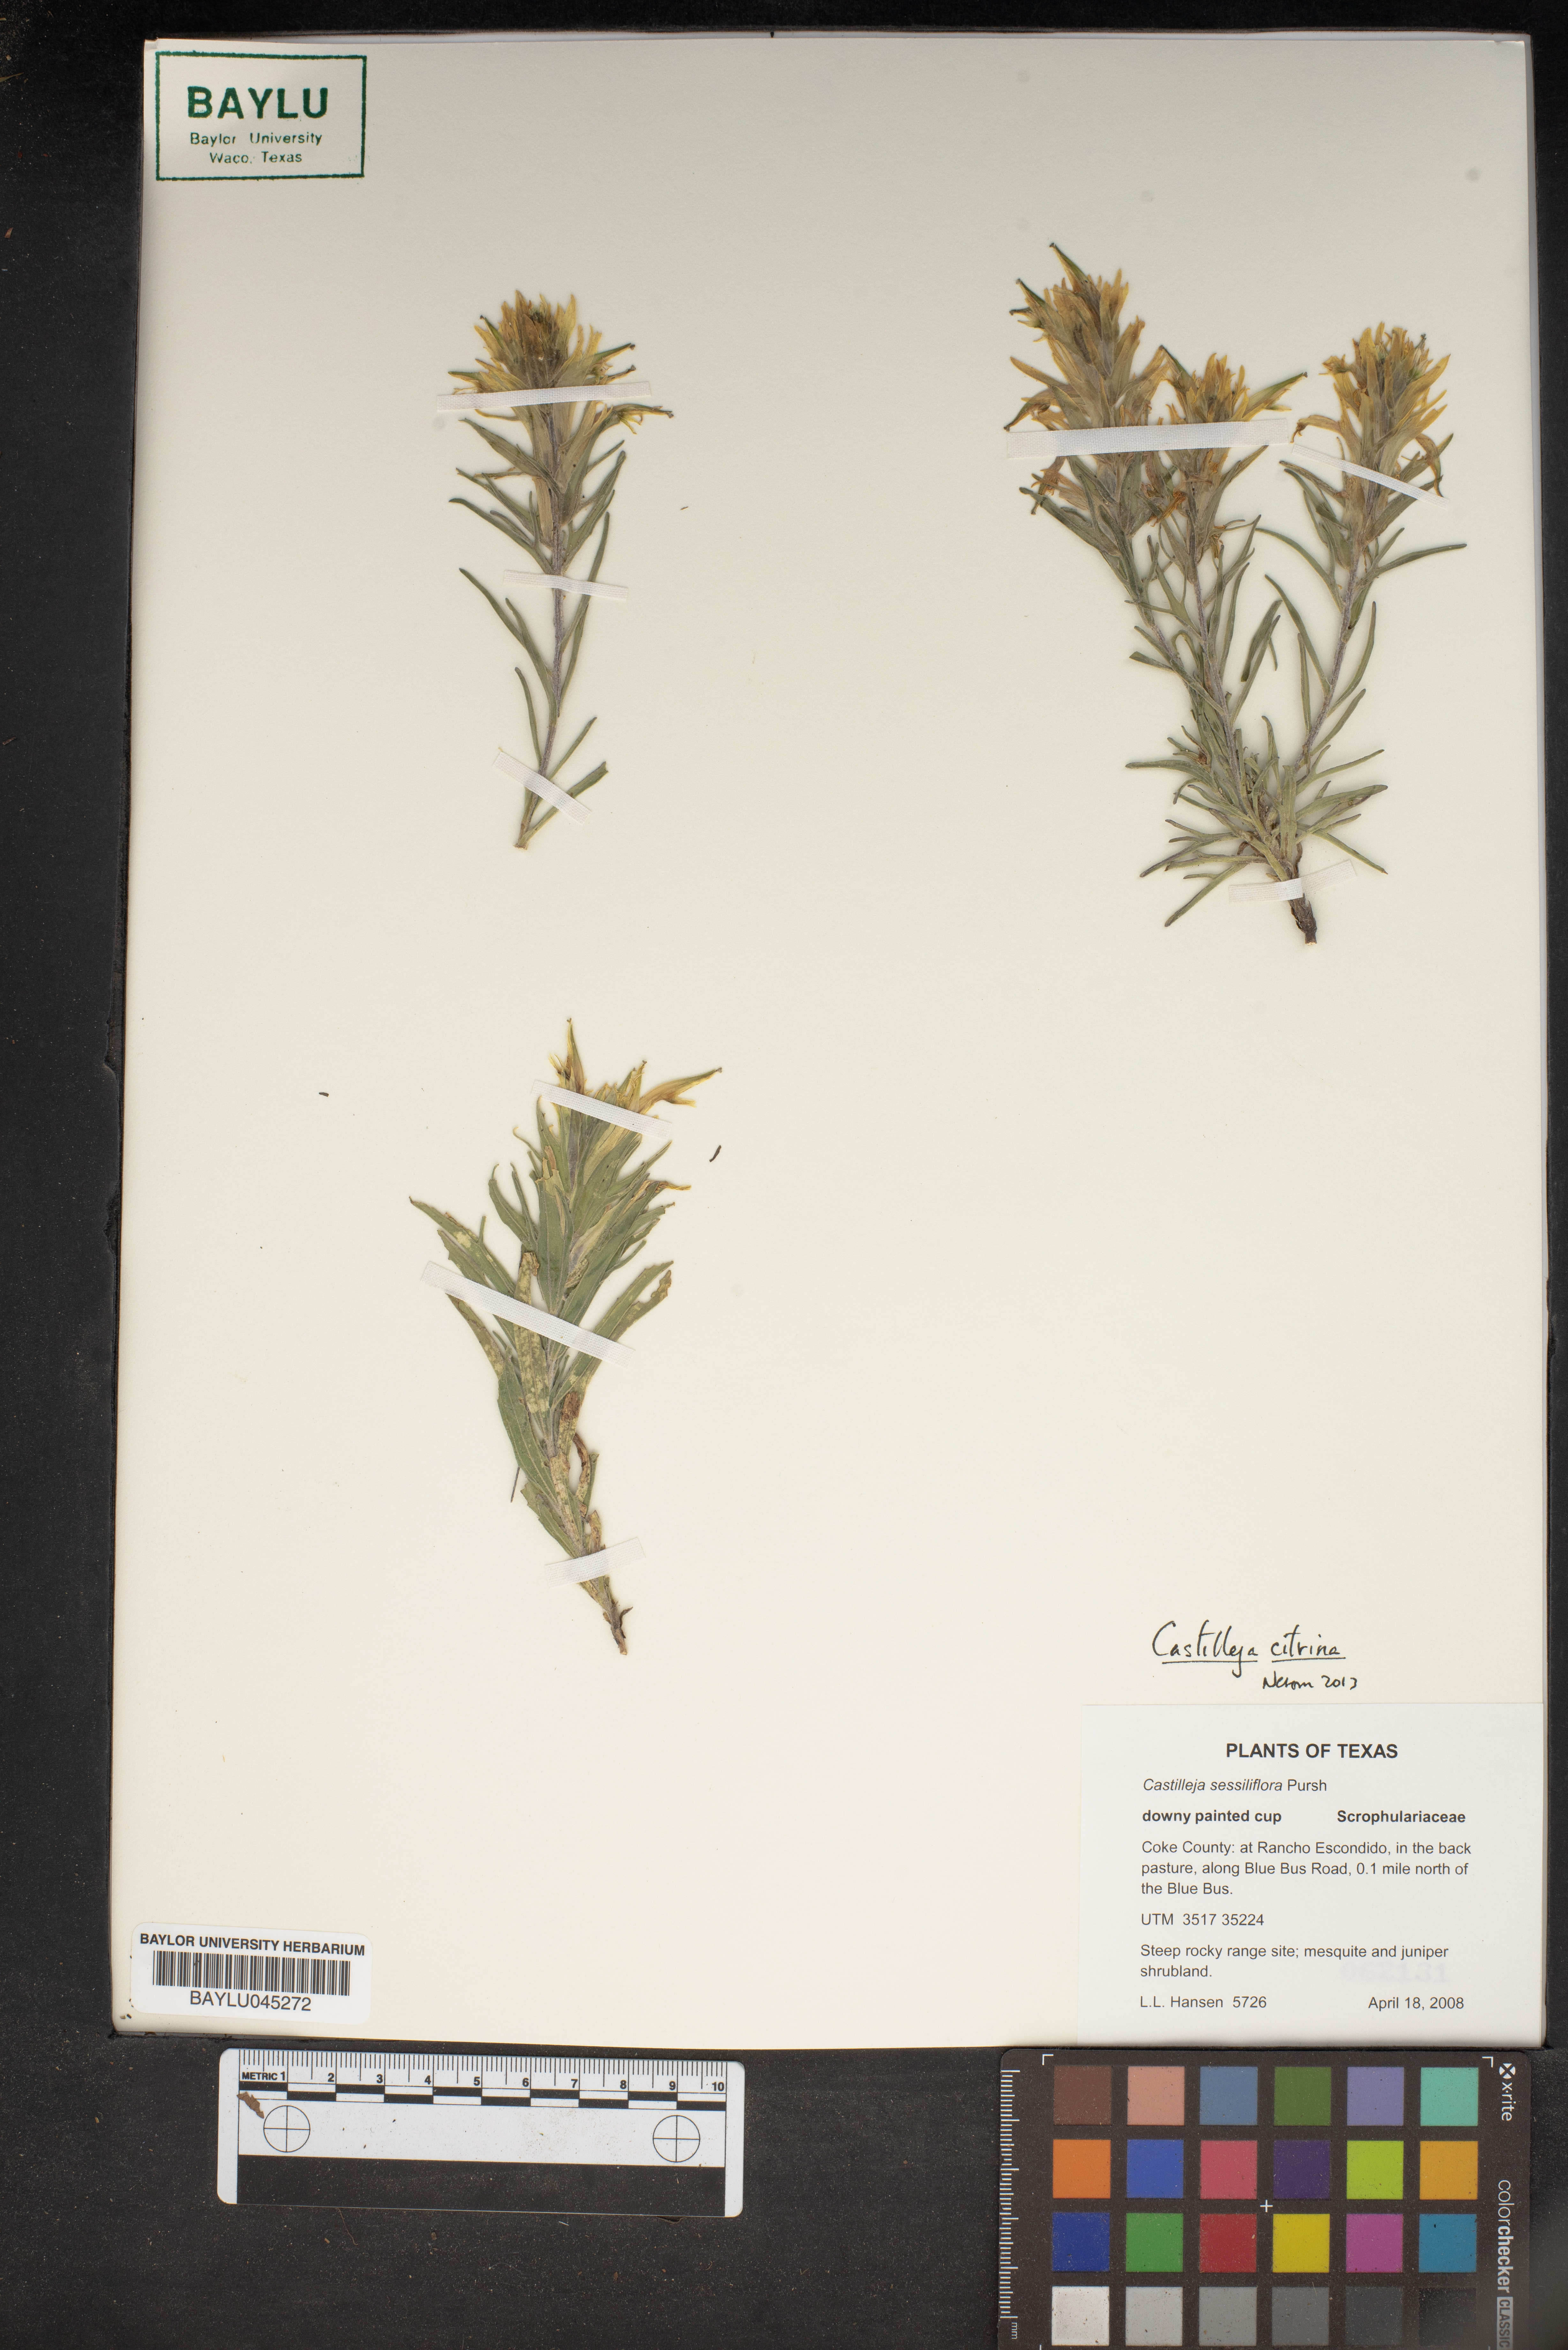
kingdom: Plantae
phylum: Tracheophyta
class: Magnoliopsida
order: Lamiales
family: Orobanchaceae
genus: Castilleja
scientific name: Castilleja citrina
